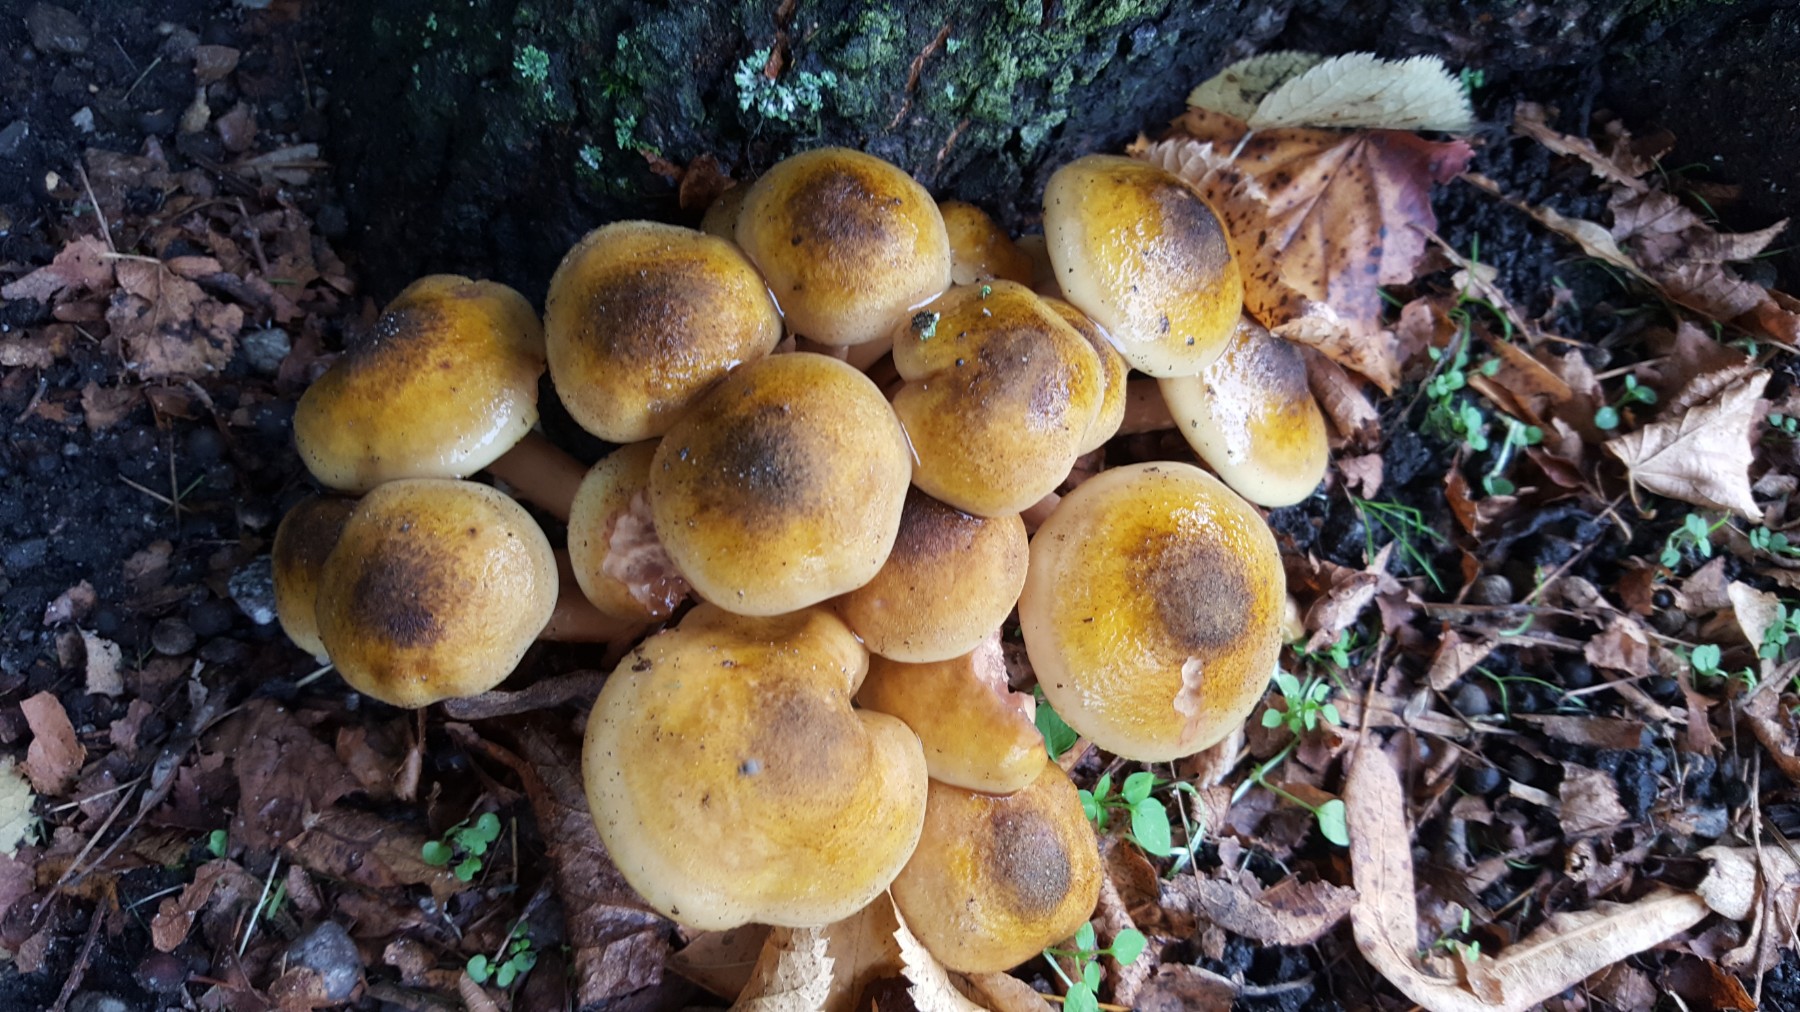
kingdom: Fungi
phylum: Basidiomycota
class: Agaricomycetes
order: Agaricales
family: Physalacriaceae
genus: Armillaria
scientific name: Armillaria mellea
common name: ægte honningsvamp
